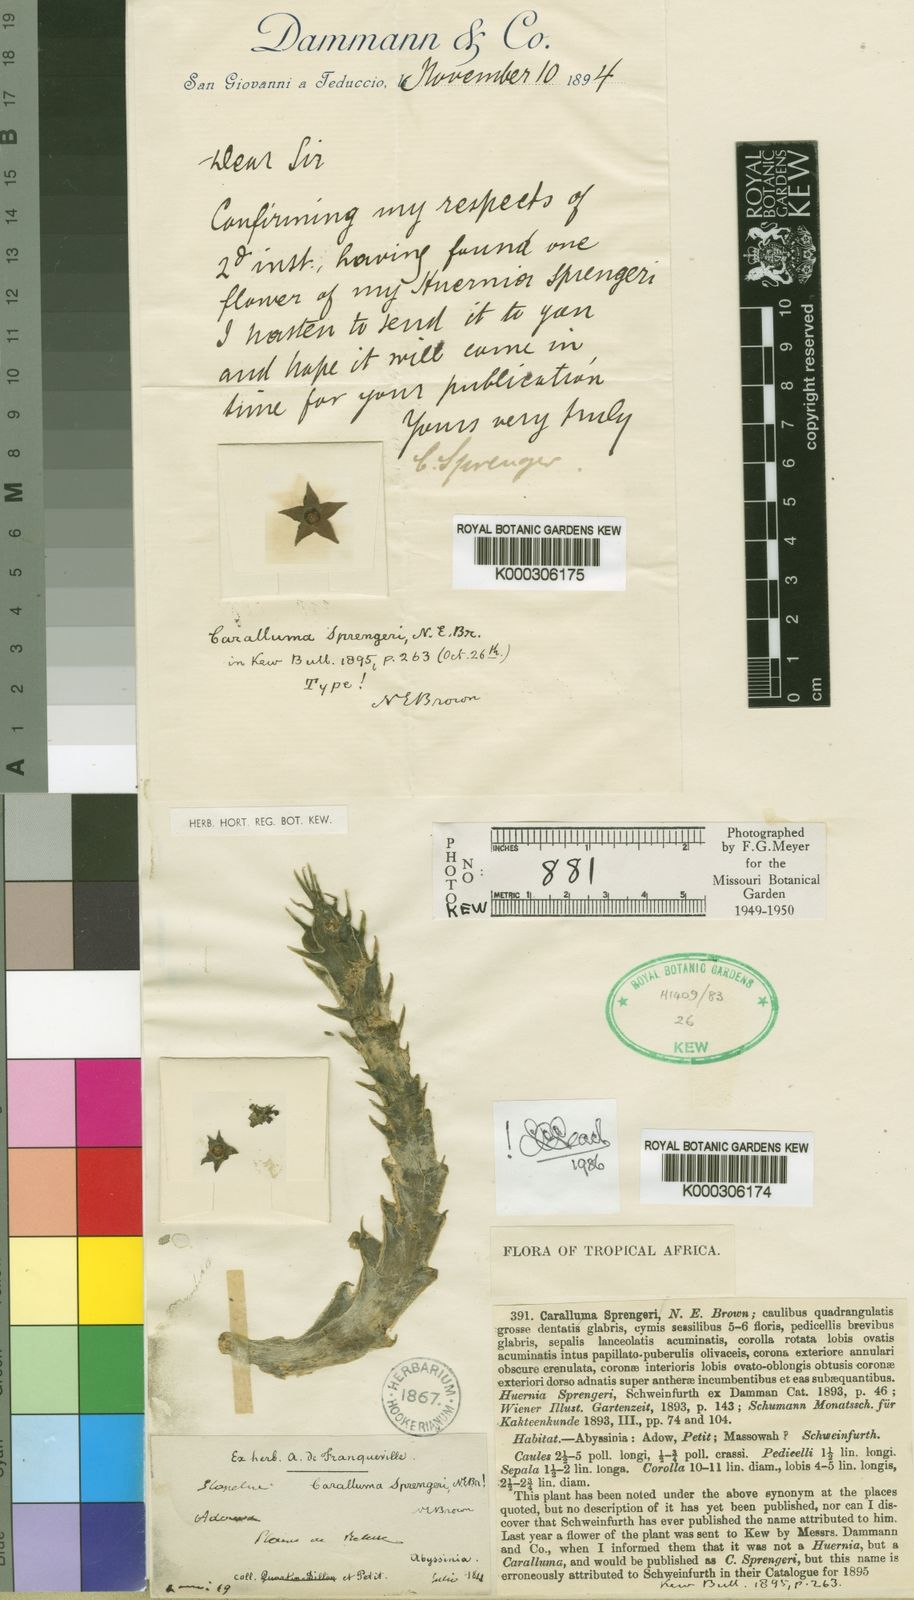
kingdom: Plantae
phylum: Tracheophyta
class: Magnoliopsida
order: Gentianales
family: Apocynaceae
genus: Ceropegia
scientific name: Ceropegia sprengeri
